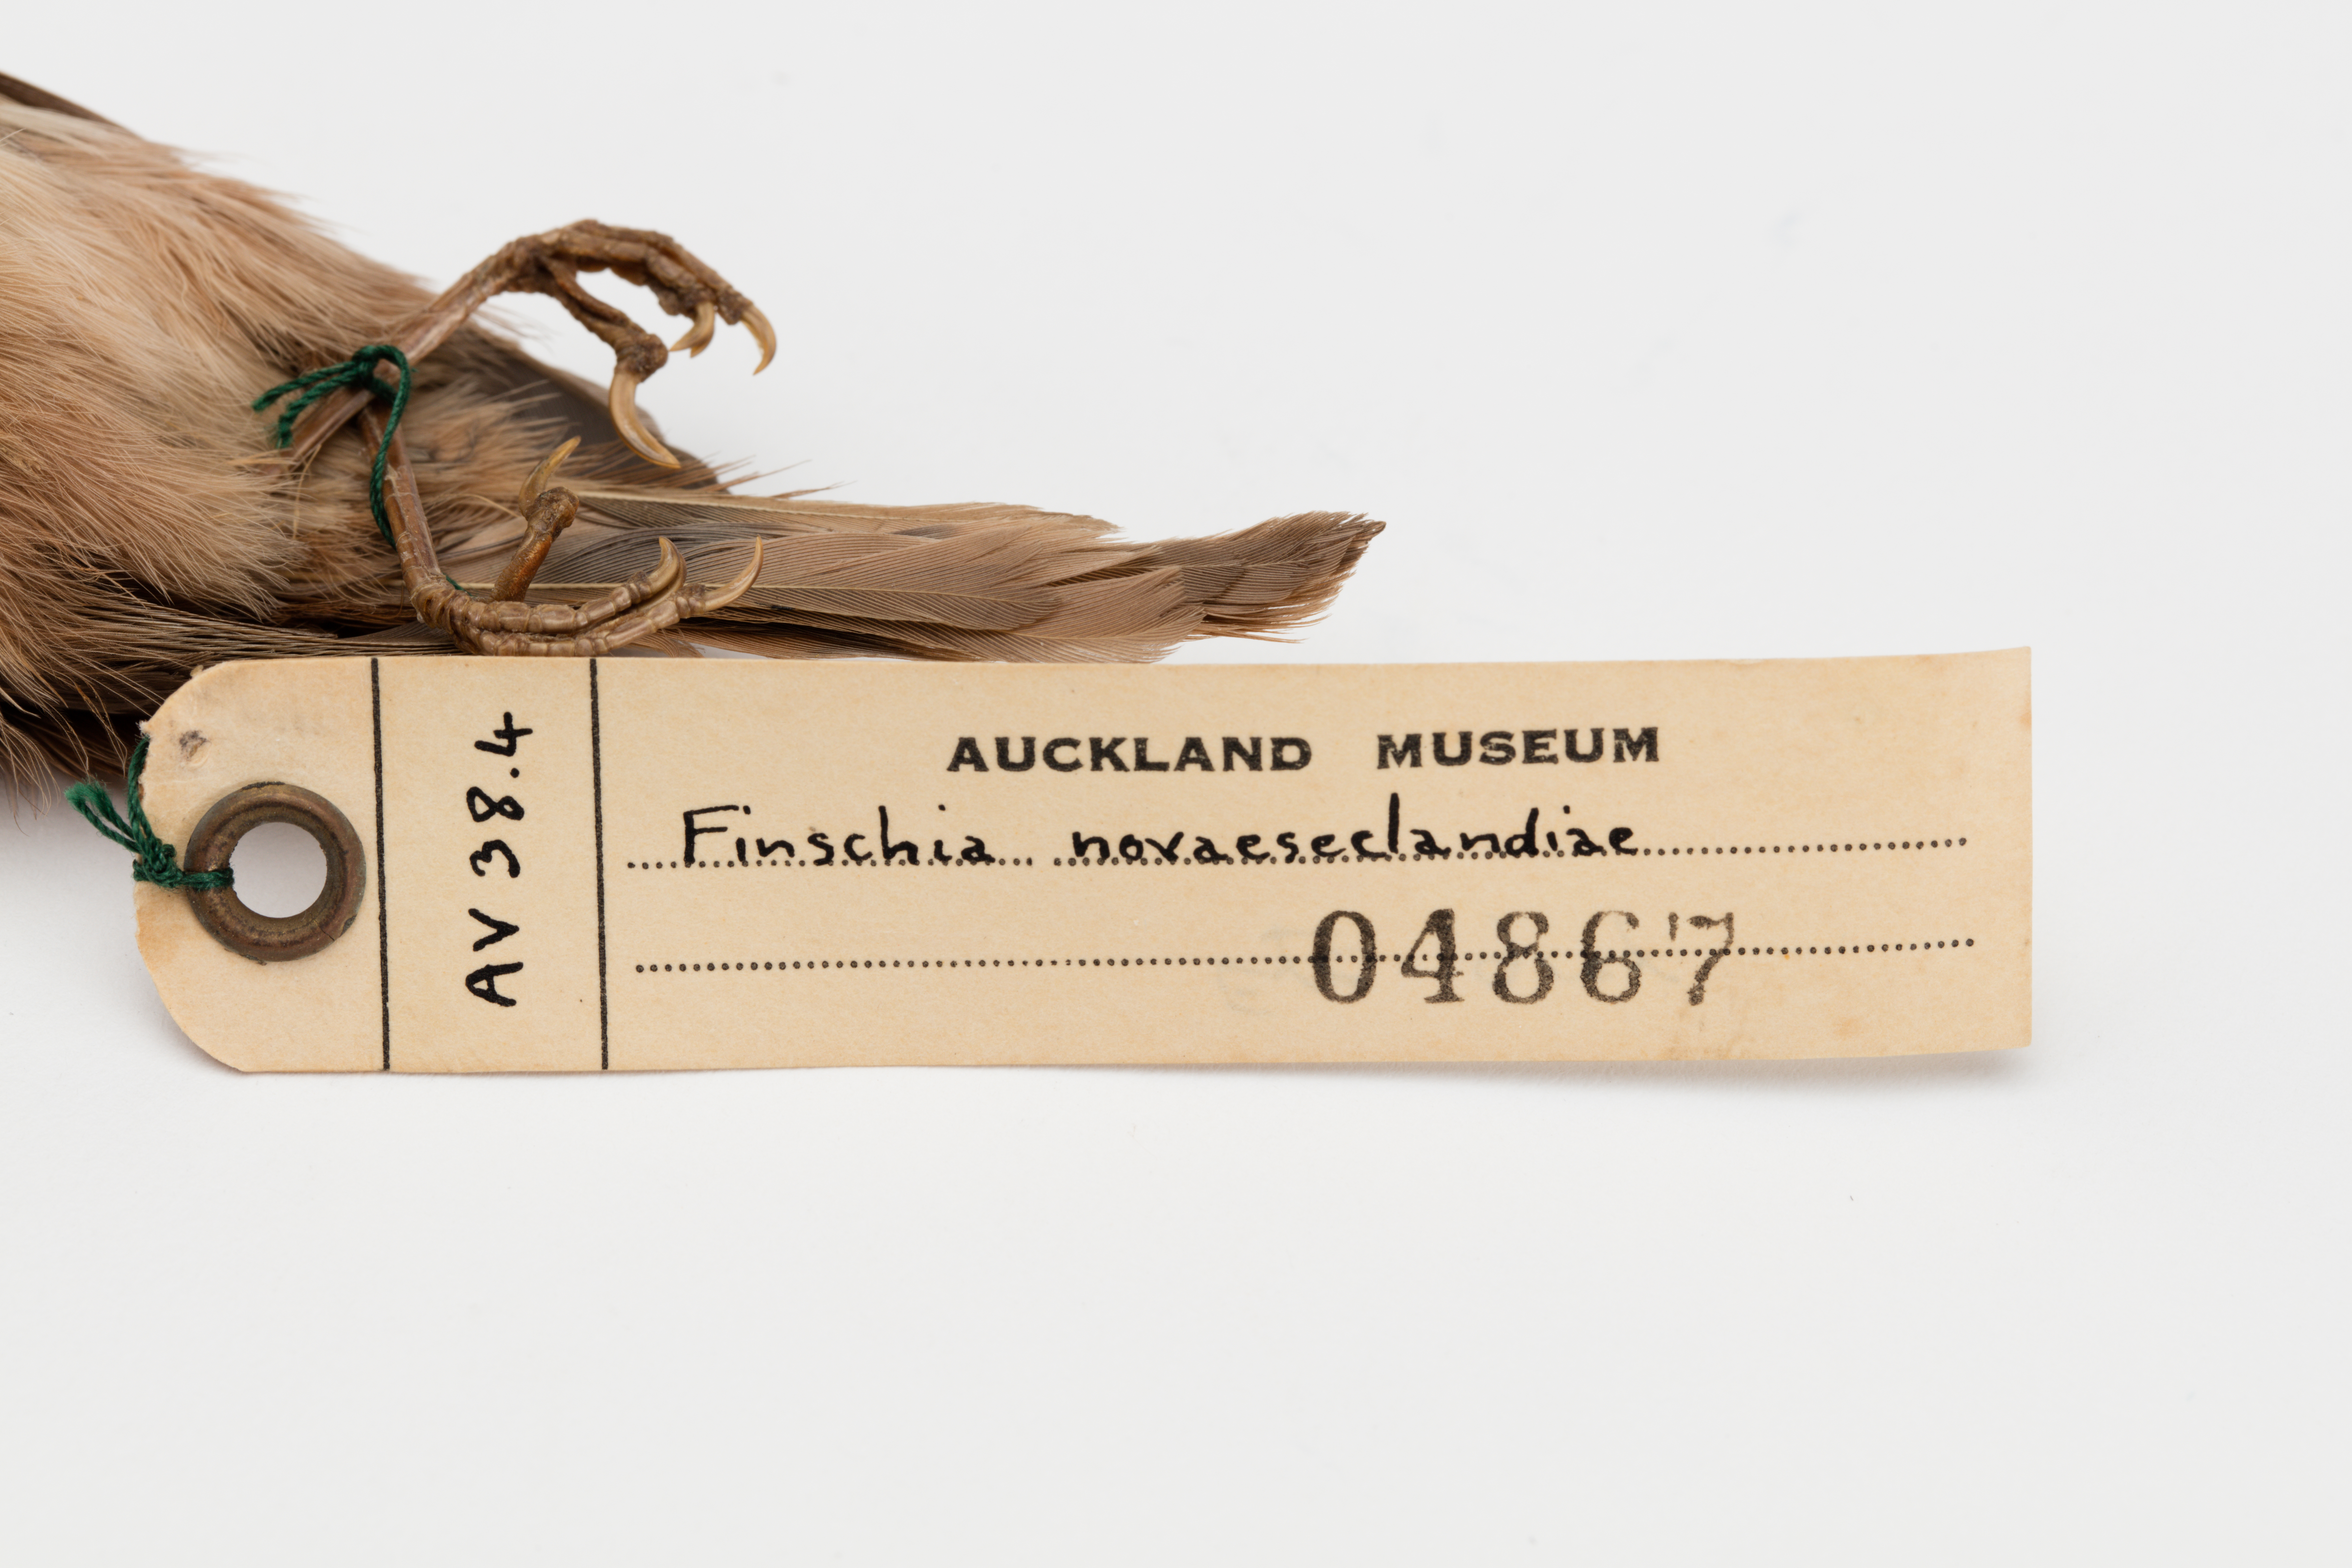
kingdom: Animalia
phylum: Chordata
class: Aves
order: Passeriformes
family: Acanthizidae
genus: Finschia
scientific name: Finschia novaeseelandiae
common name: Pipipi
